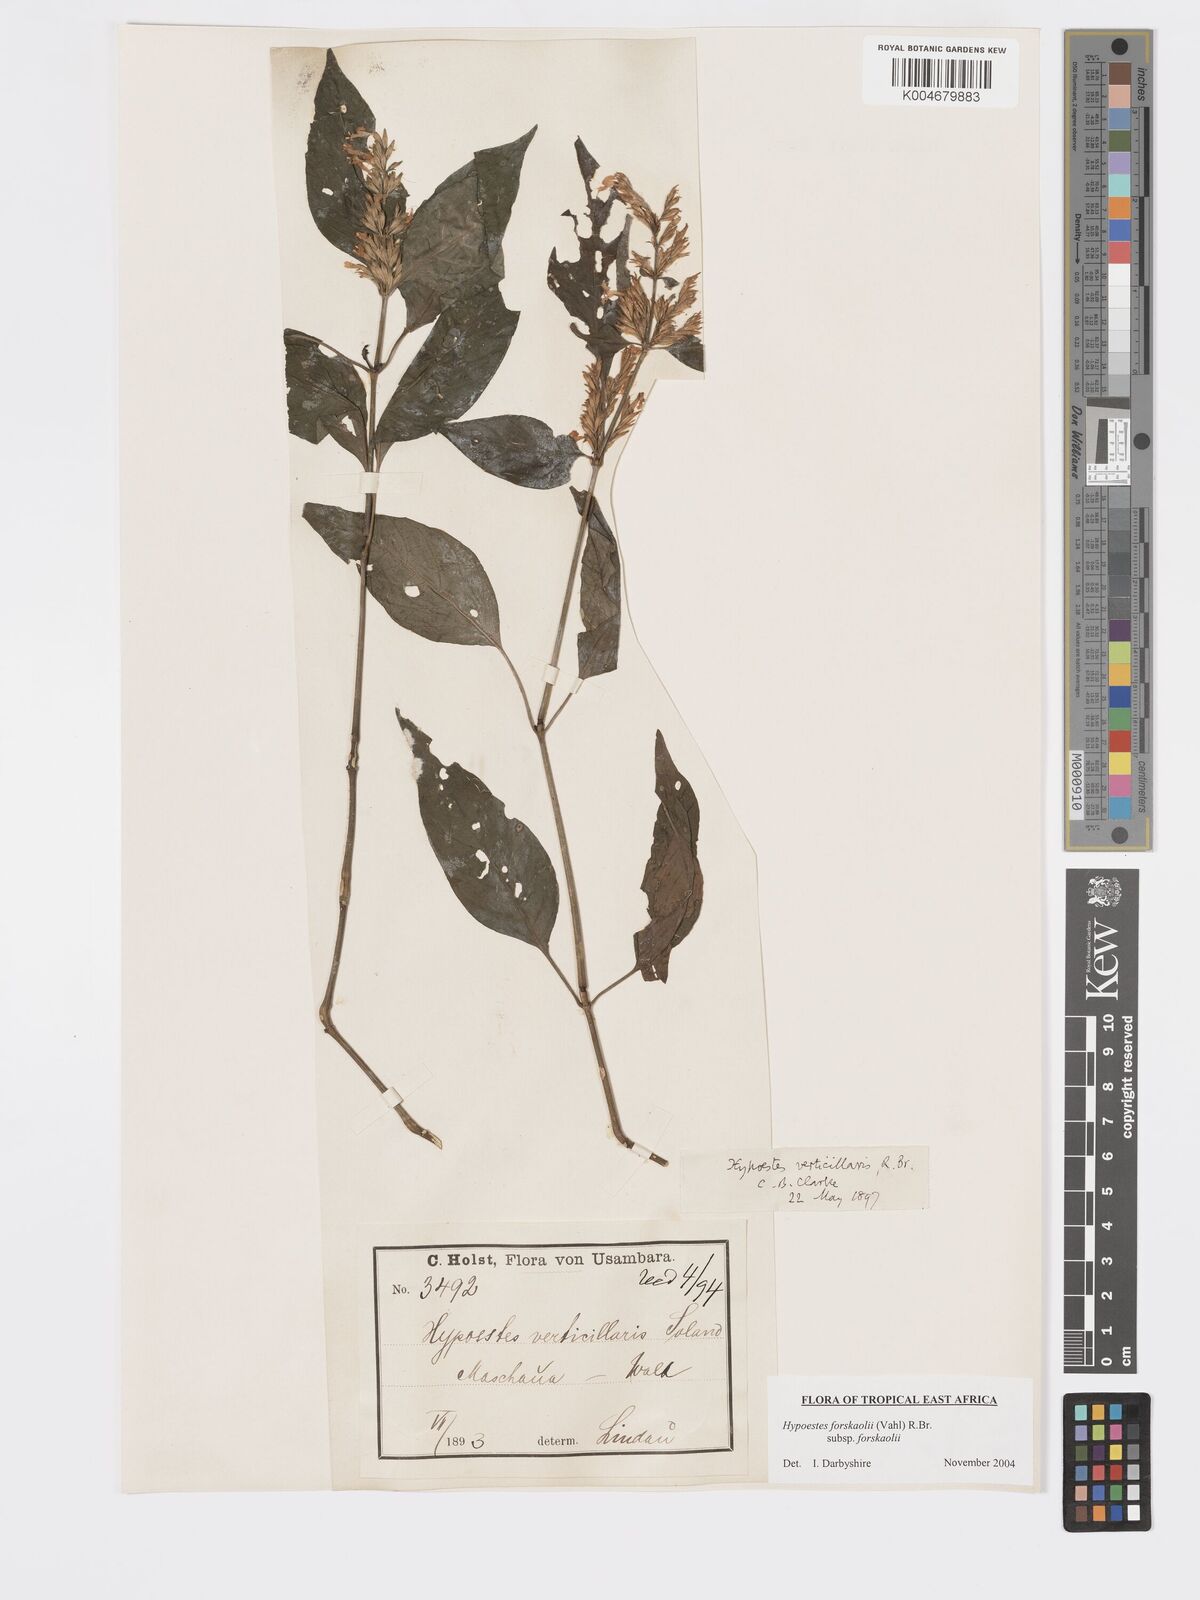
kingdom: Plantae
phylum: Tracheophyta
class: Magnoliopsida
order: Lamiales
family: Acanthaceae
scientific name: Acanthaceae
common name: Acanthaceae
